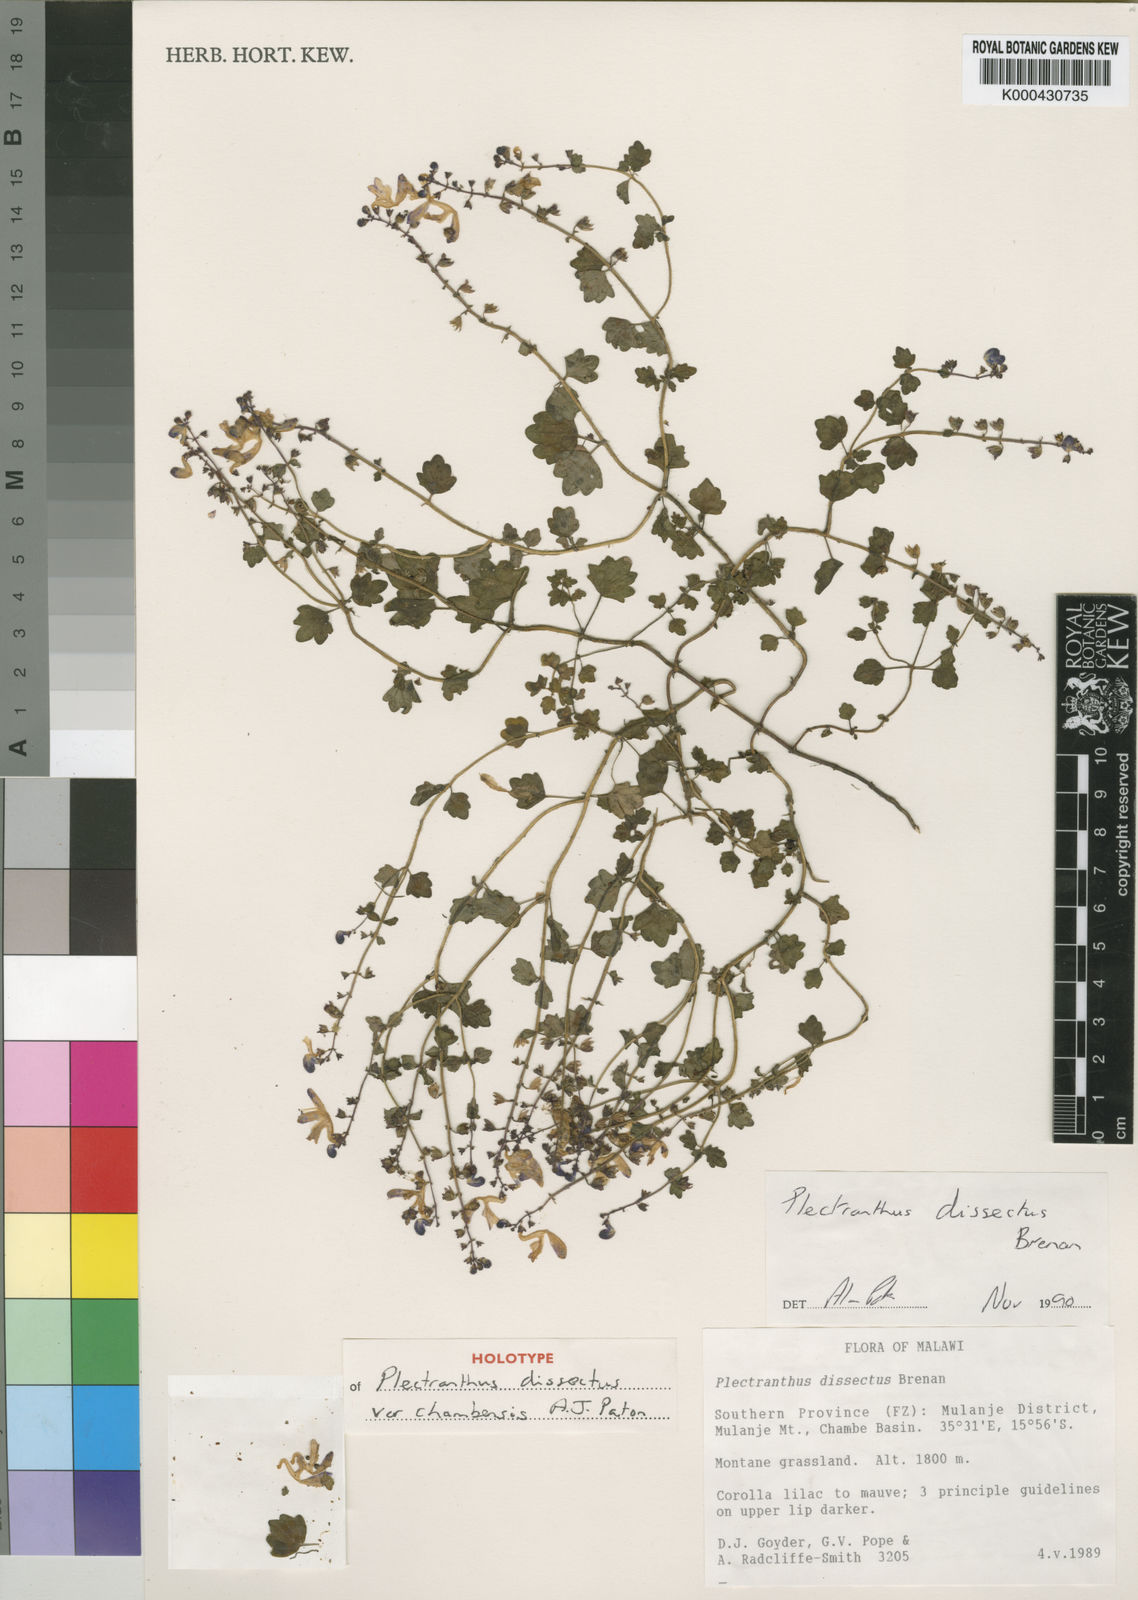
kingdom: Plantae
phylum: Tracheophyta
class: Magnoliopsida
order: Lamiales
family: Lamiaceae
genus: Equilabium
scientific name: Equilabium dissectum
